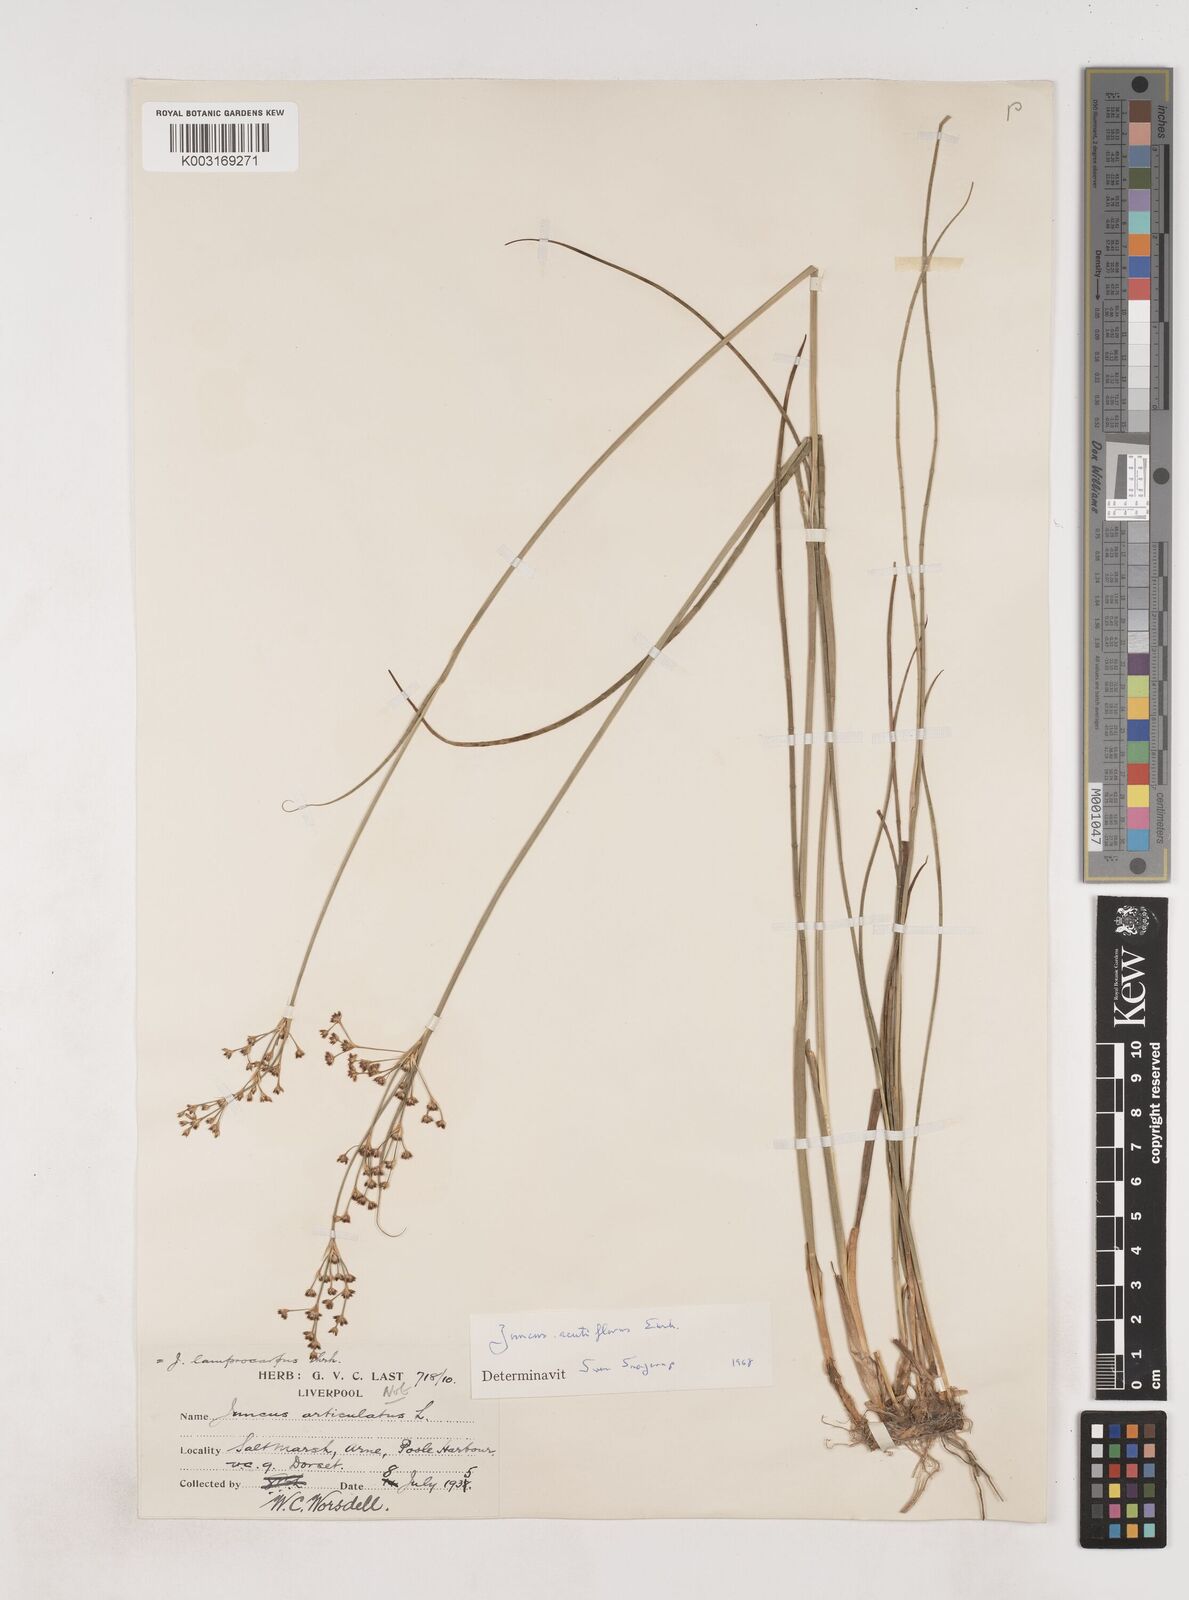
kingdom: Plantae
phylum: Tracheophyta
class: Liliopsida
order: Poales
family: Juncaceae
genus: Juncus
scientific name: Juncus acutiflorus
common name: Sharp-flowered rush
